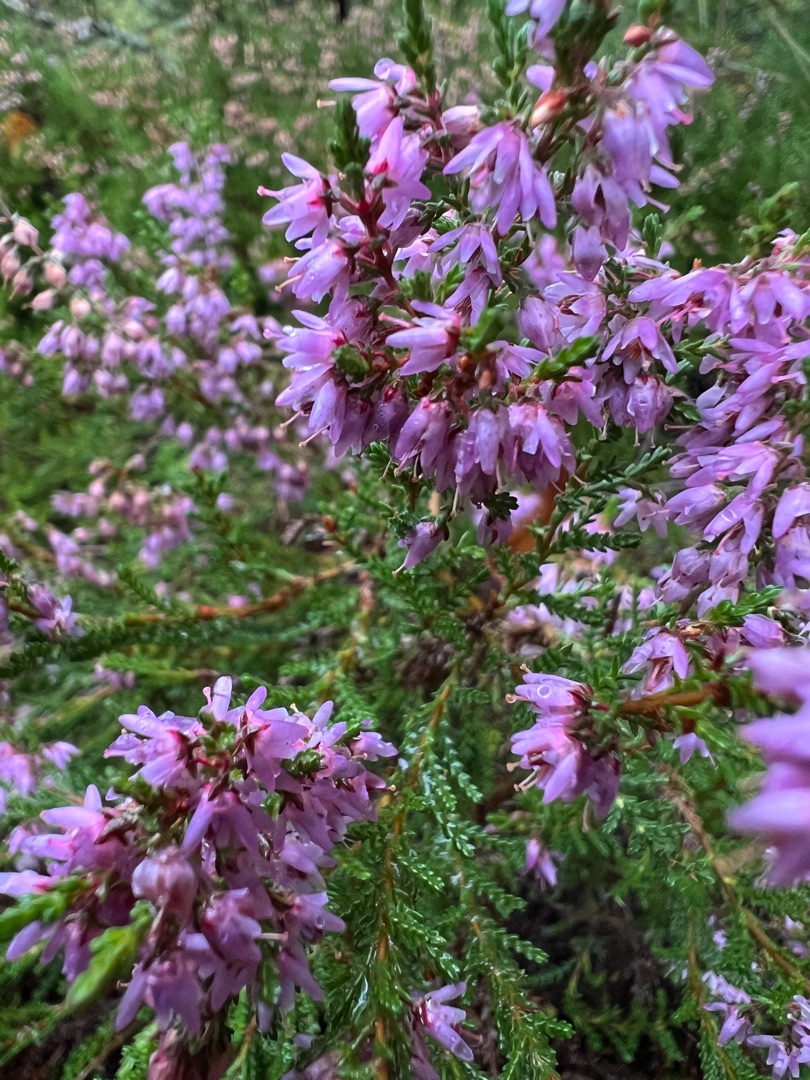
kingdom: Plantae
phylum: Tracheophyta
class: Magnoliopsida
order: Ericales
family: Ericaceae
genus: Calluna
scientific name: Calluna vulgaris
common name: Hedelyng
